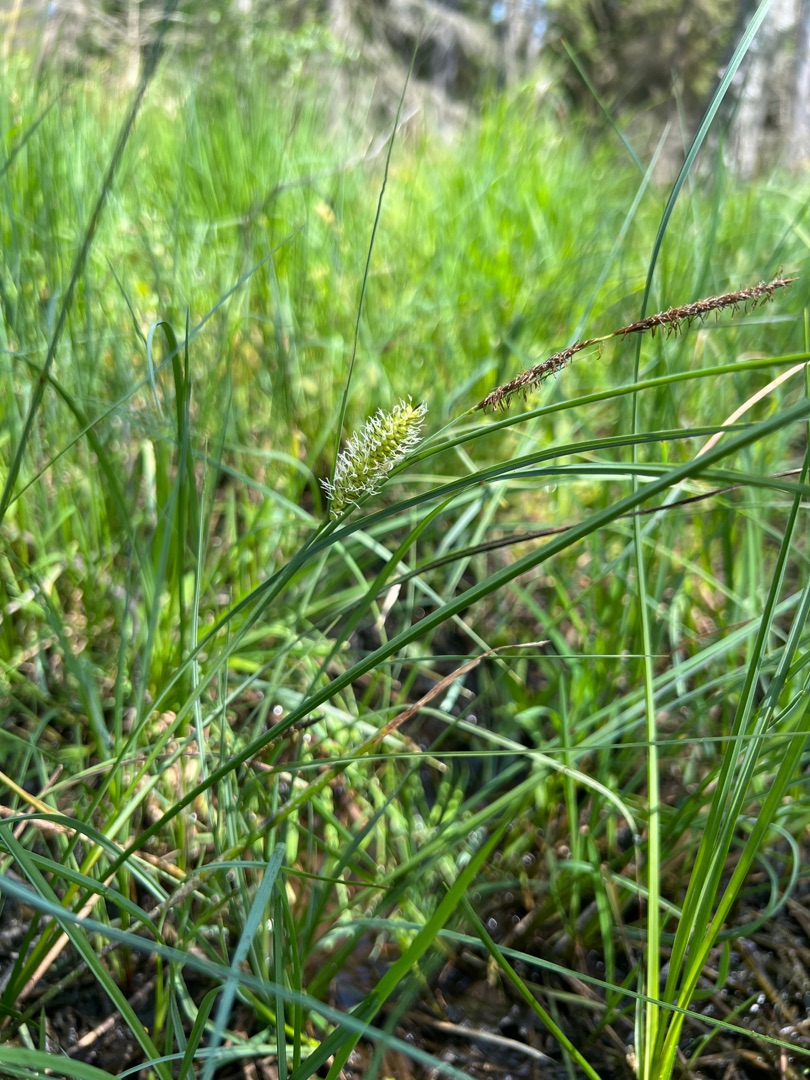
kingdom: Plantae
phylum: Tracheophyta
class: Liliopsida
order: Poales
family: Cyperaceae
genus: Carex
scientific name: Carex rostrata
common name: Næb-star
